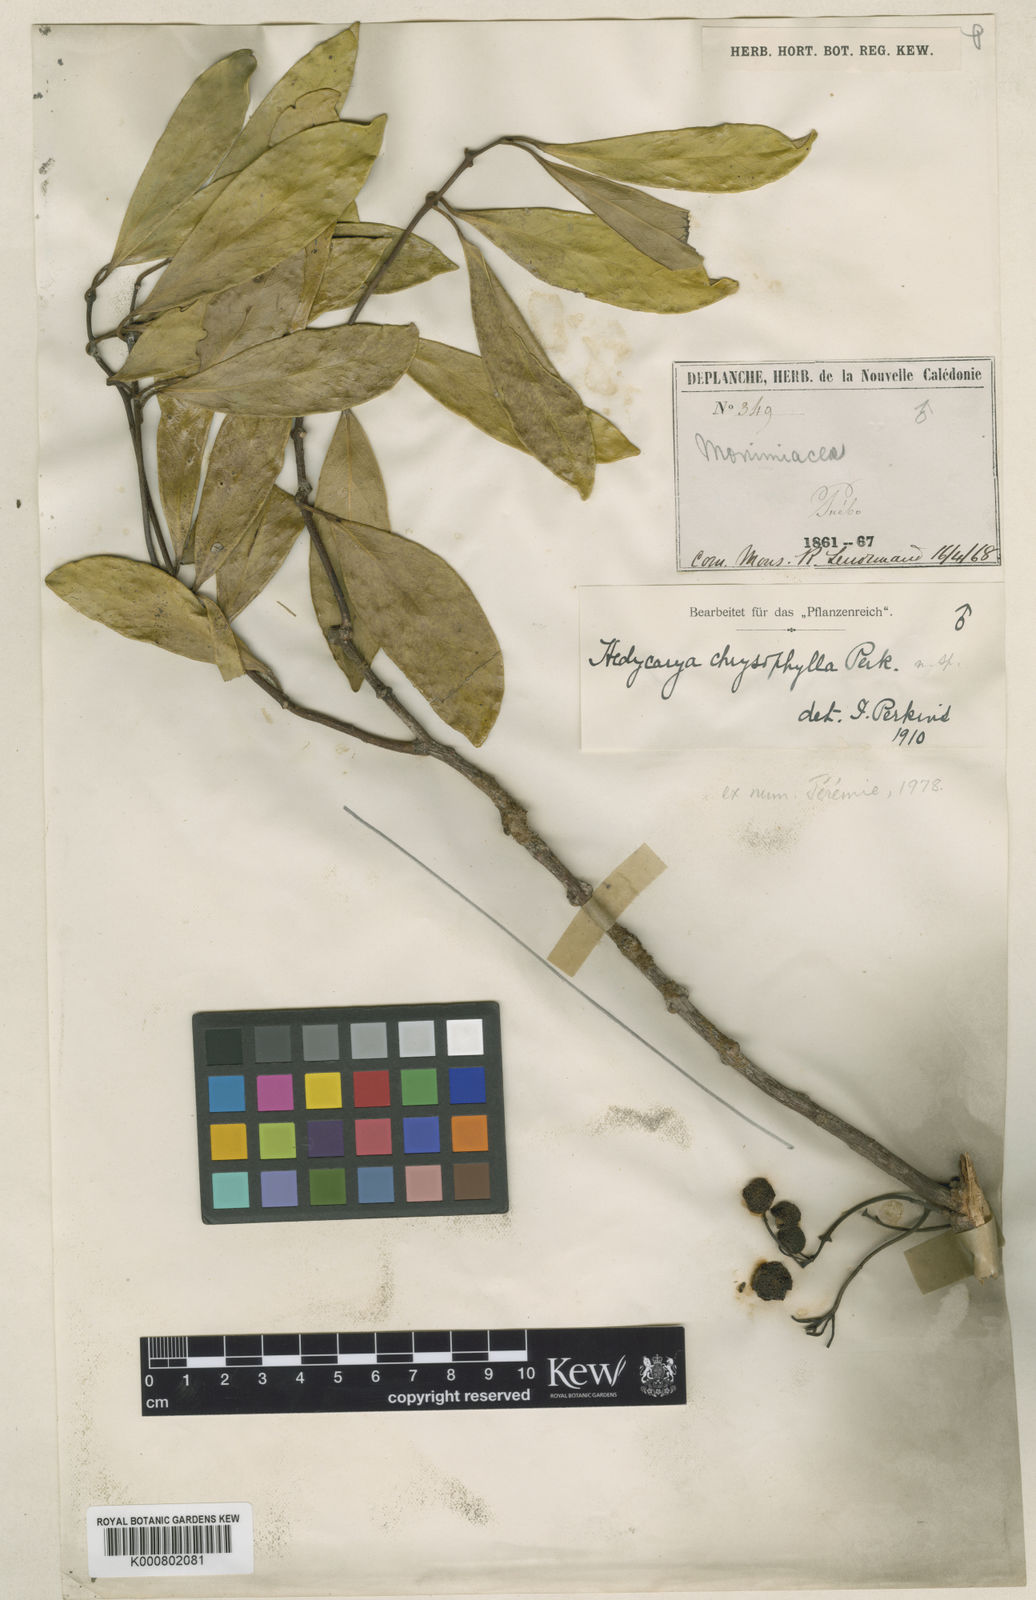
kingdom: Plantae
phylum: Tracheophyta
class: Magnoliopsida
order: Laurales
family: Monimiaceae
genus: Hedycarya
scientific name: Hedycarya chrysophylla
